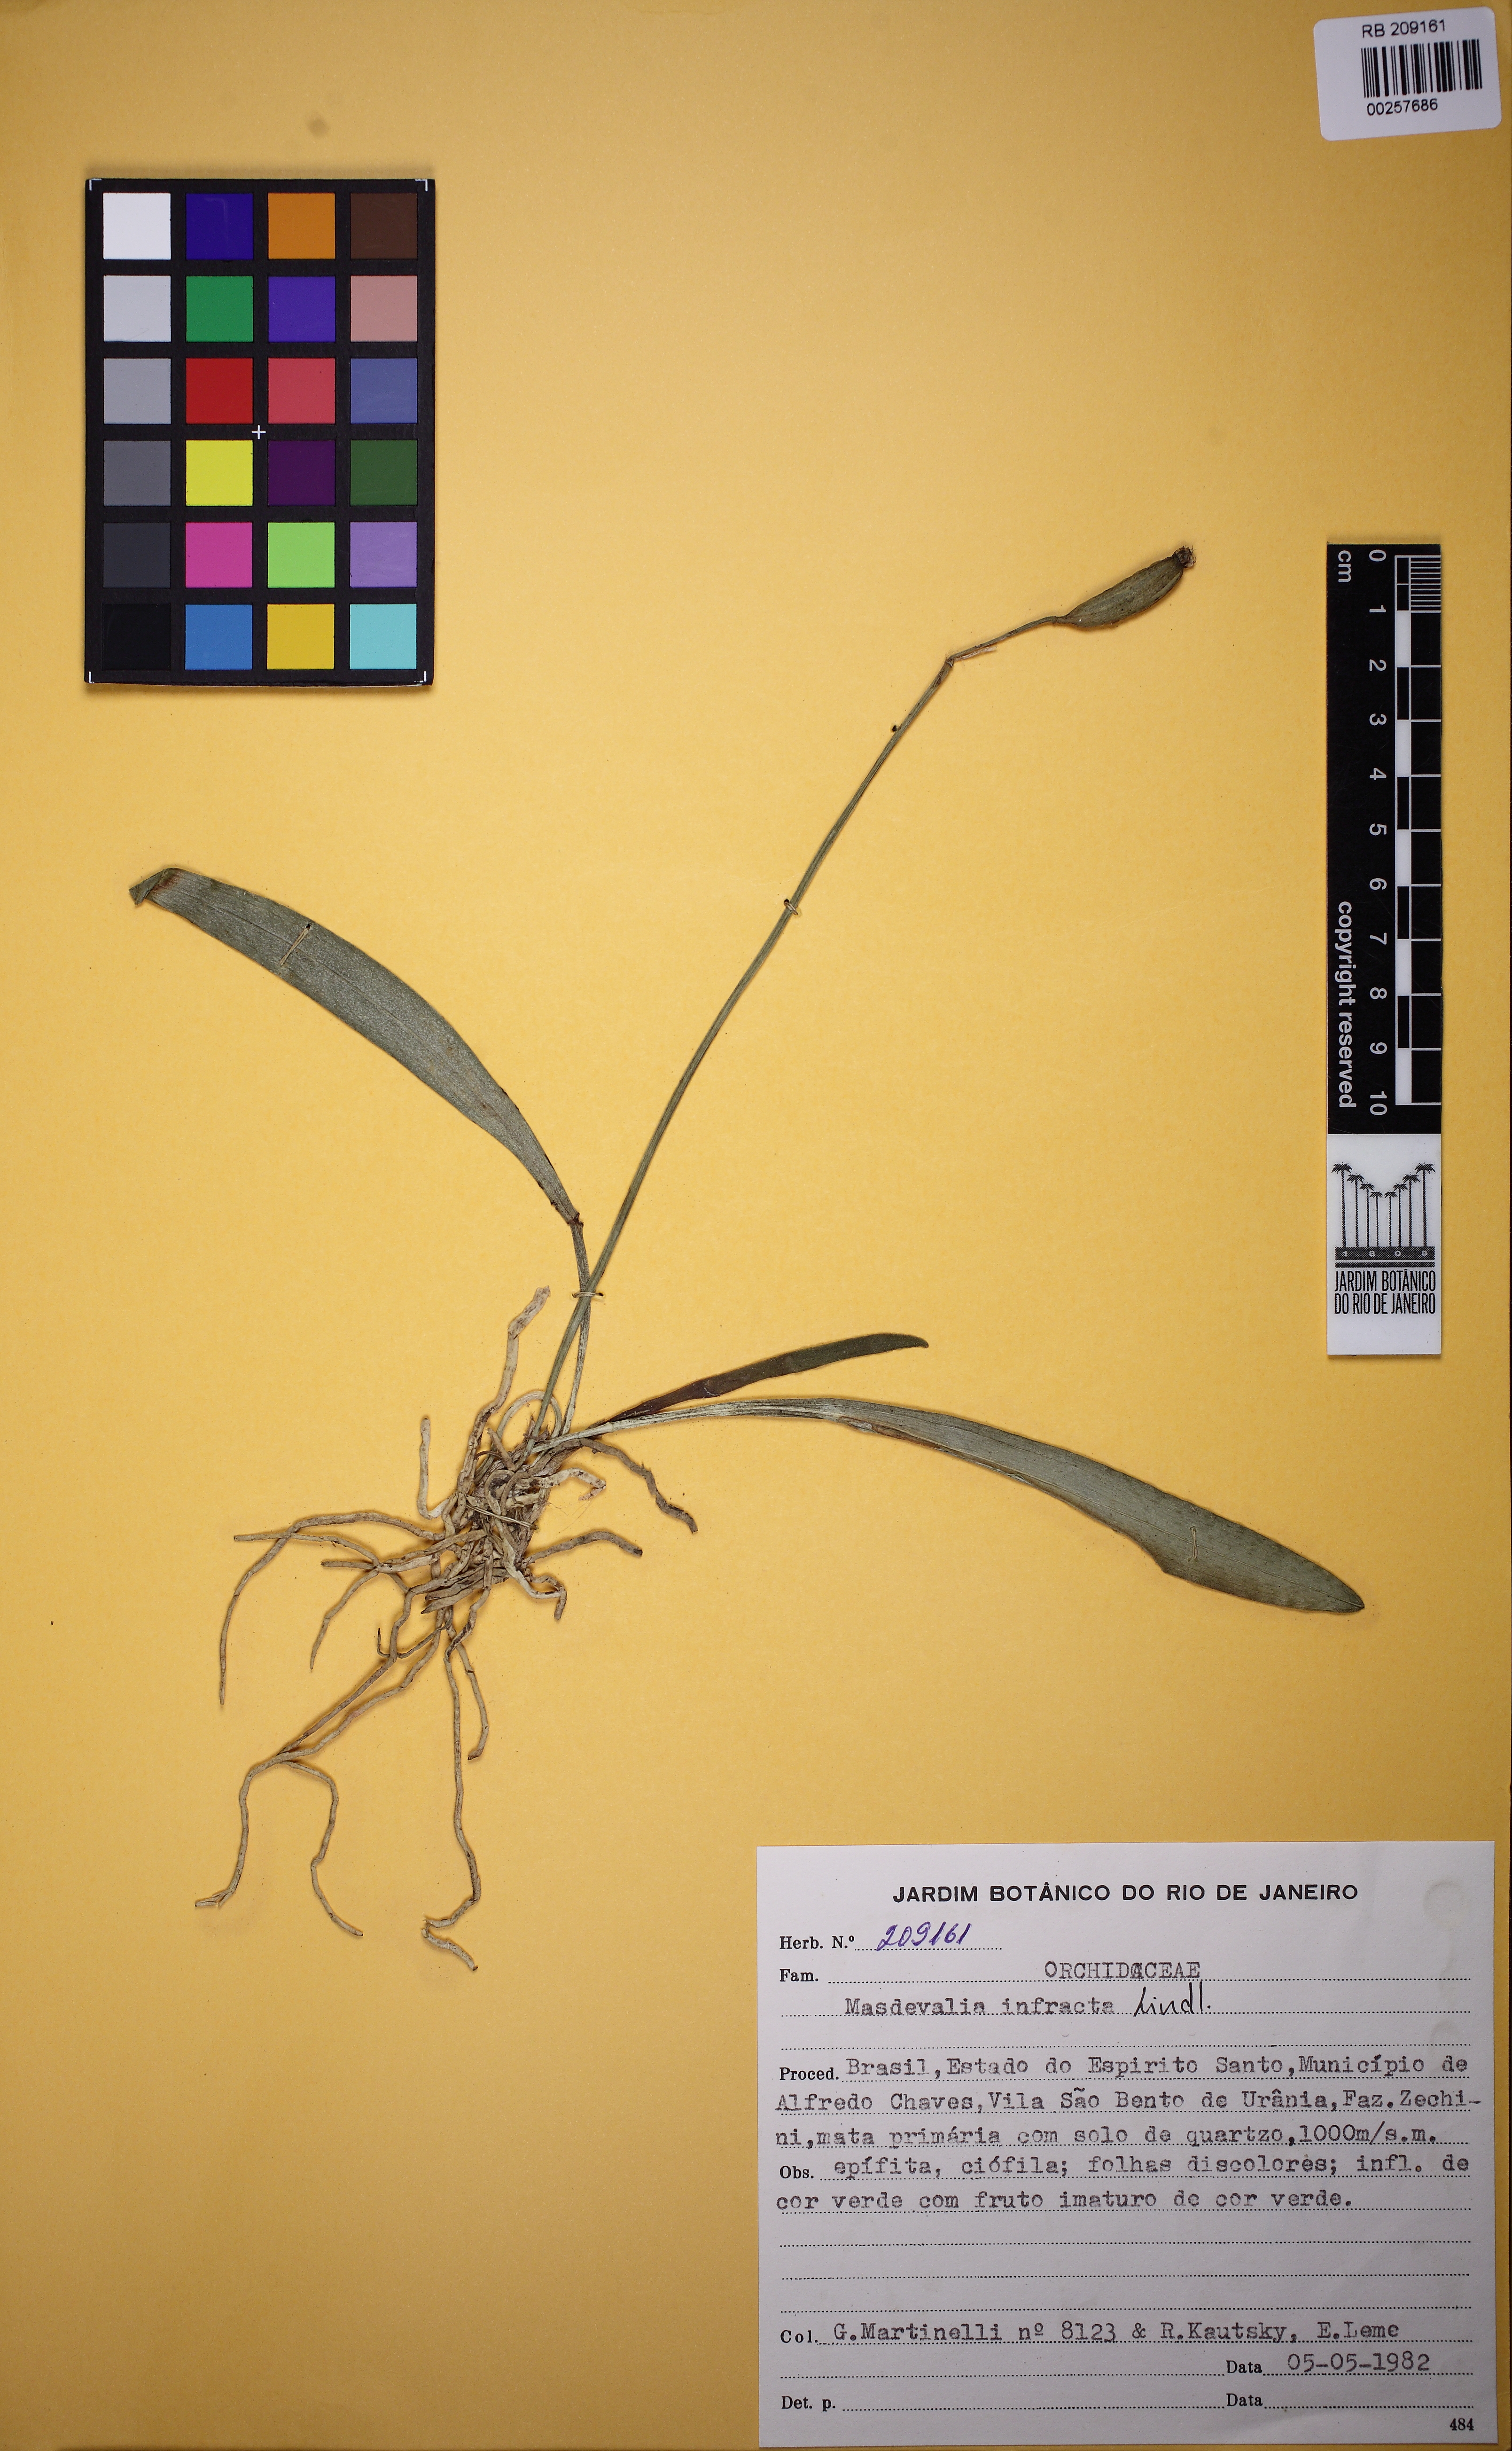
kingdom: Plantae
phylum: Tracheophyta
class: Liliopsida
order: Asparagales
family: Orchidaceae
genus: Masdevallia
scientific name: Masdevallia infracta
